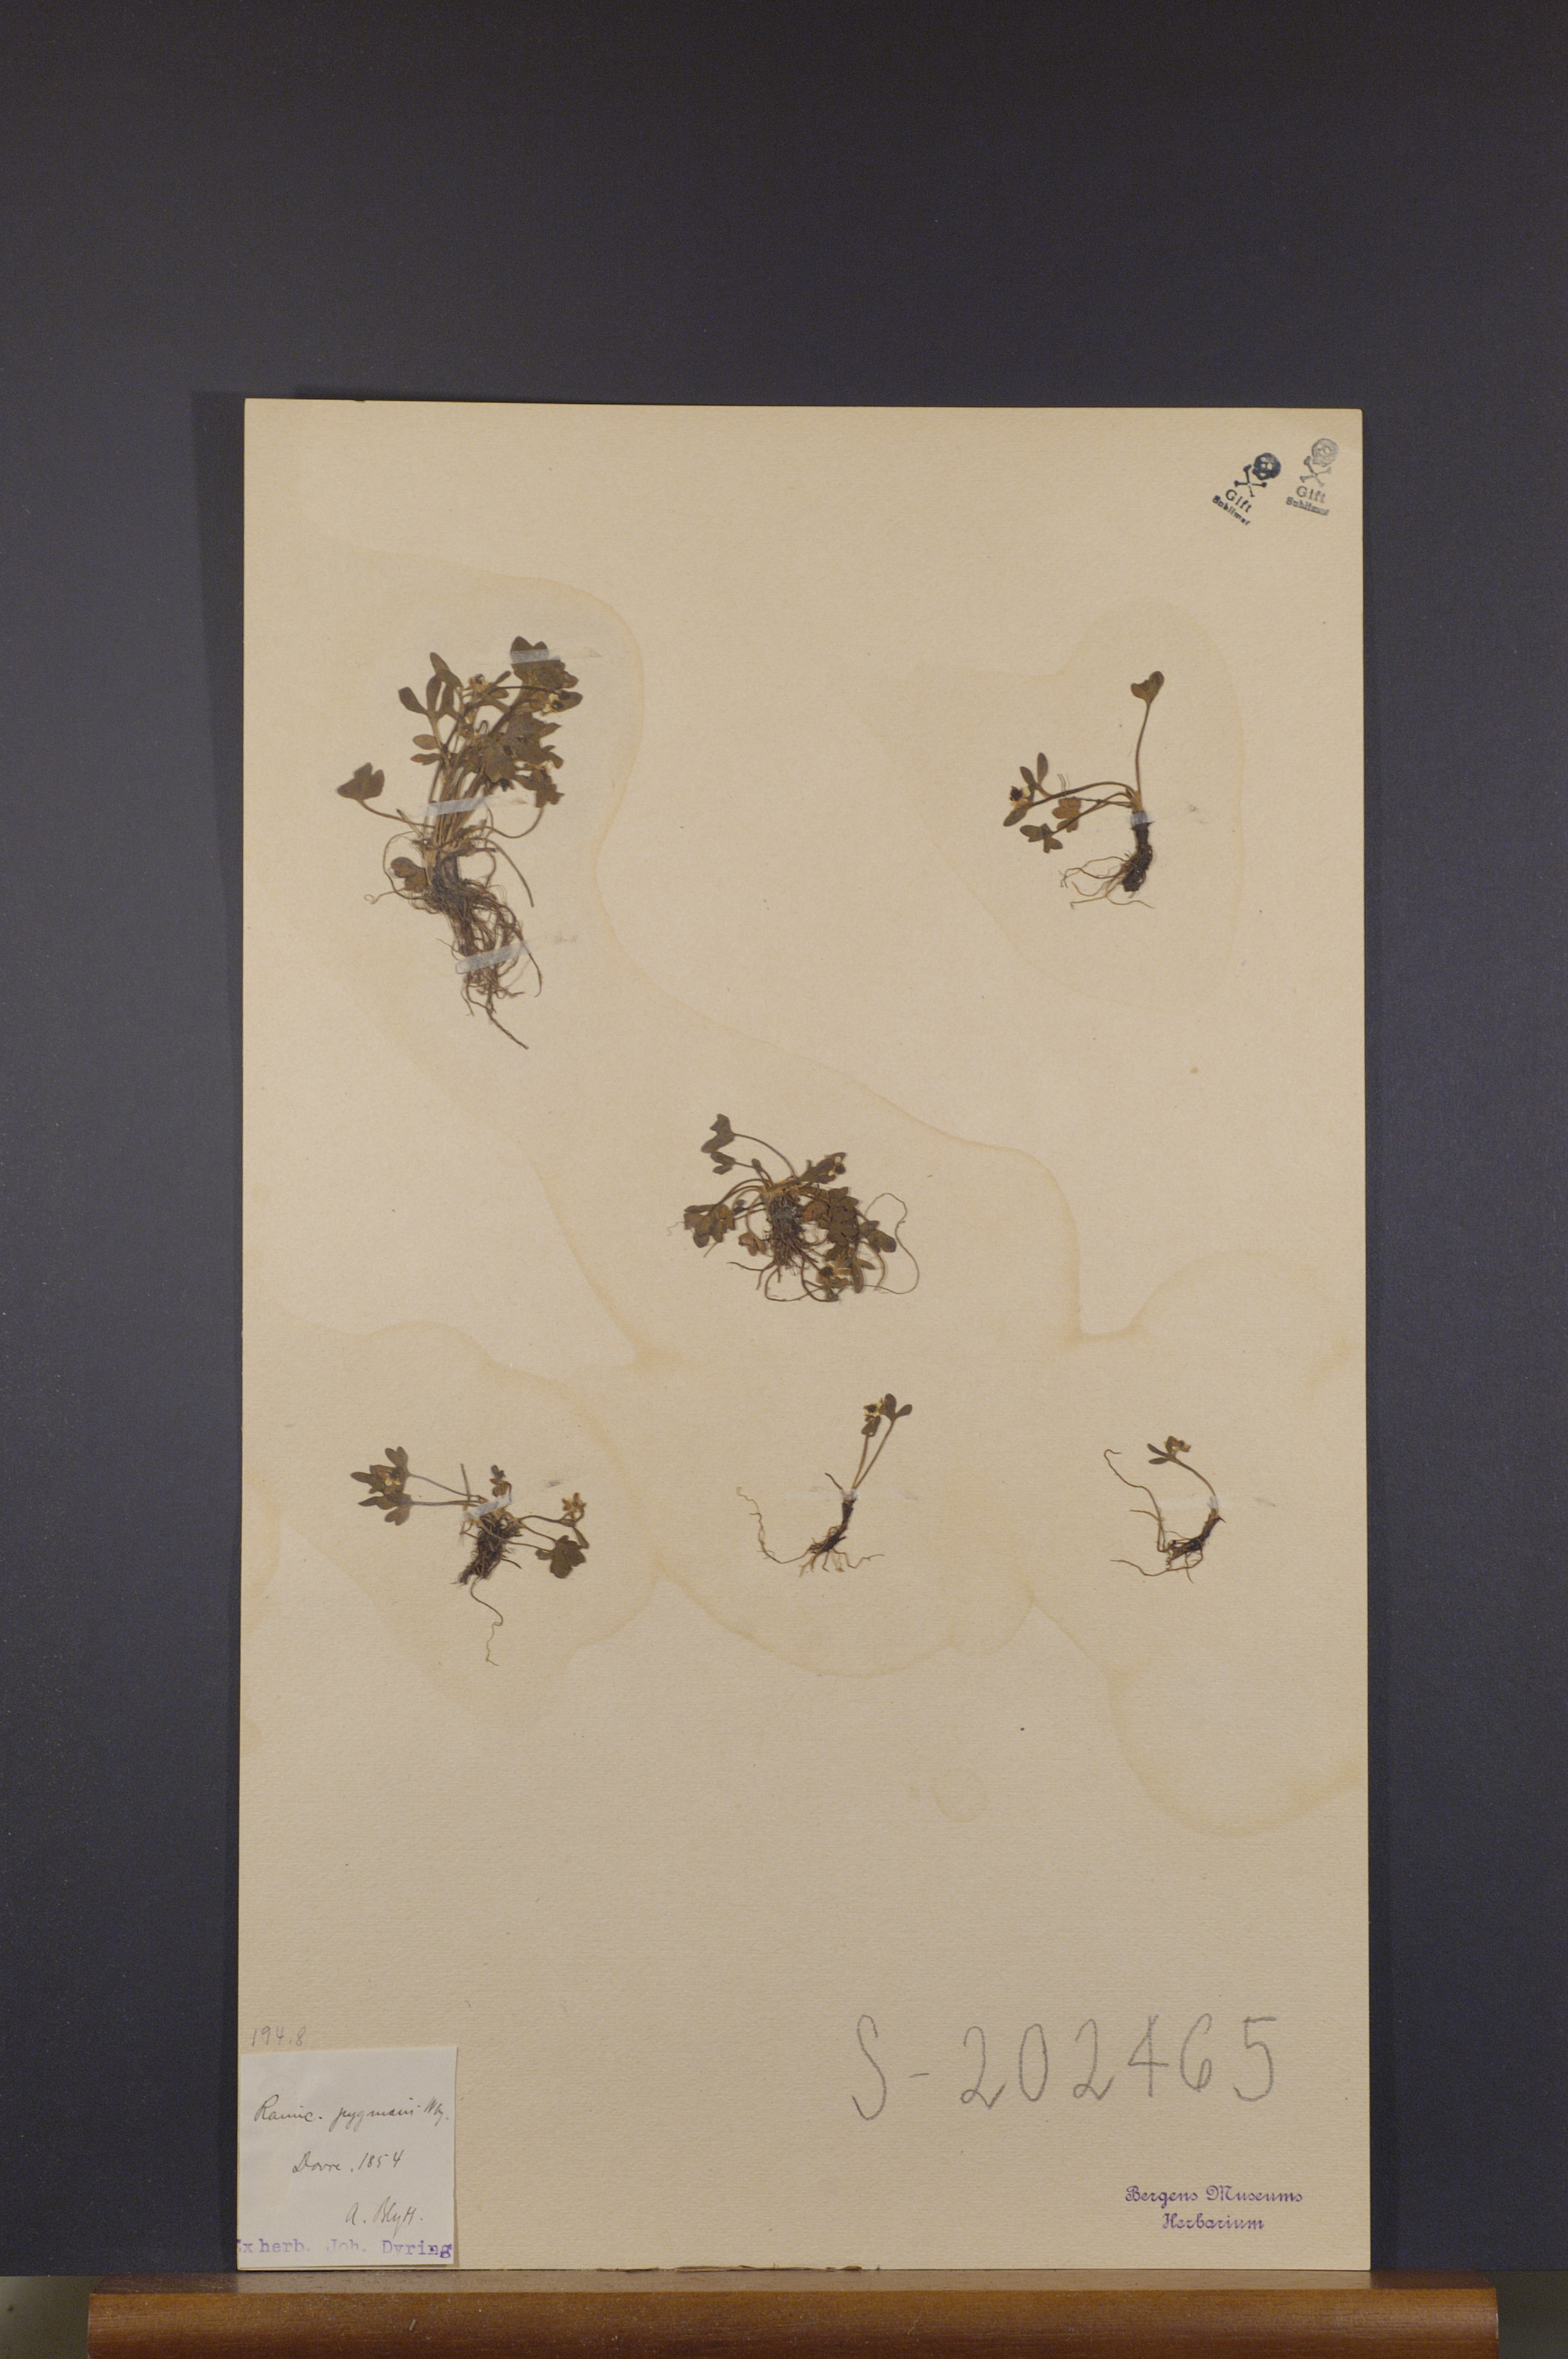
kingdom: Plantae
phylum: Tracheophyta
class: Magnoliopsida
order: Ranunculales
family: Ranunculaceae
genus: Ranunculus
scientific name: Ranunculus pygmaeus
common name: Dwarf buttercup
